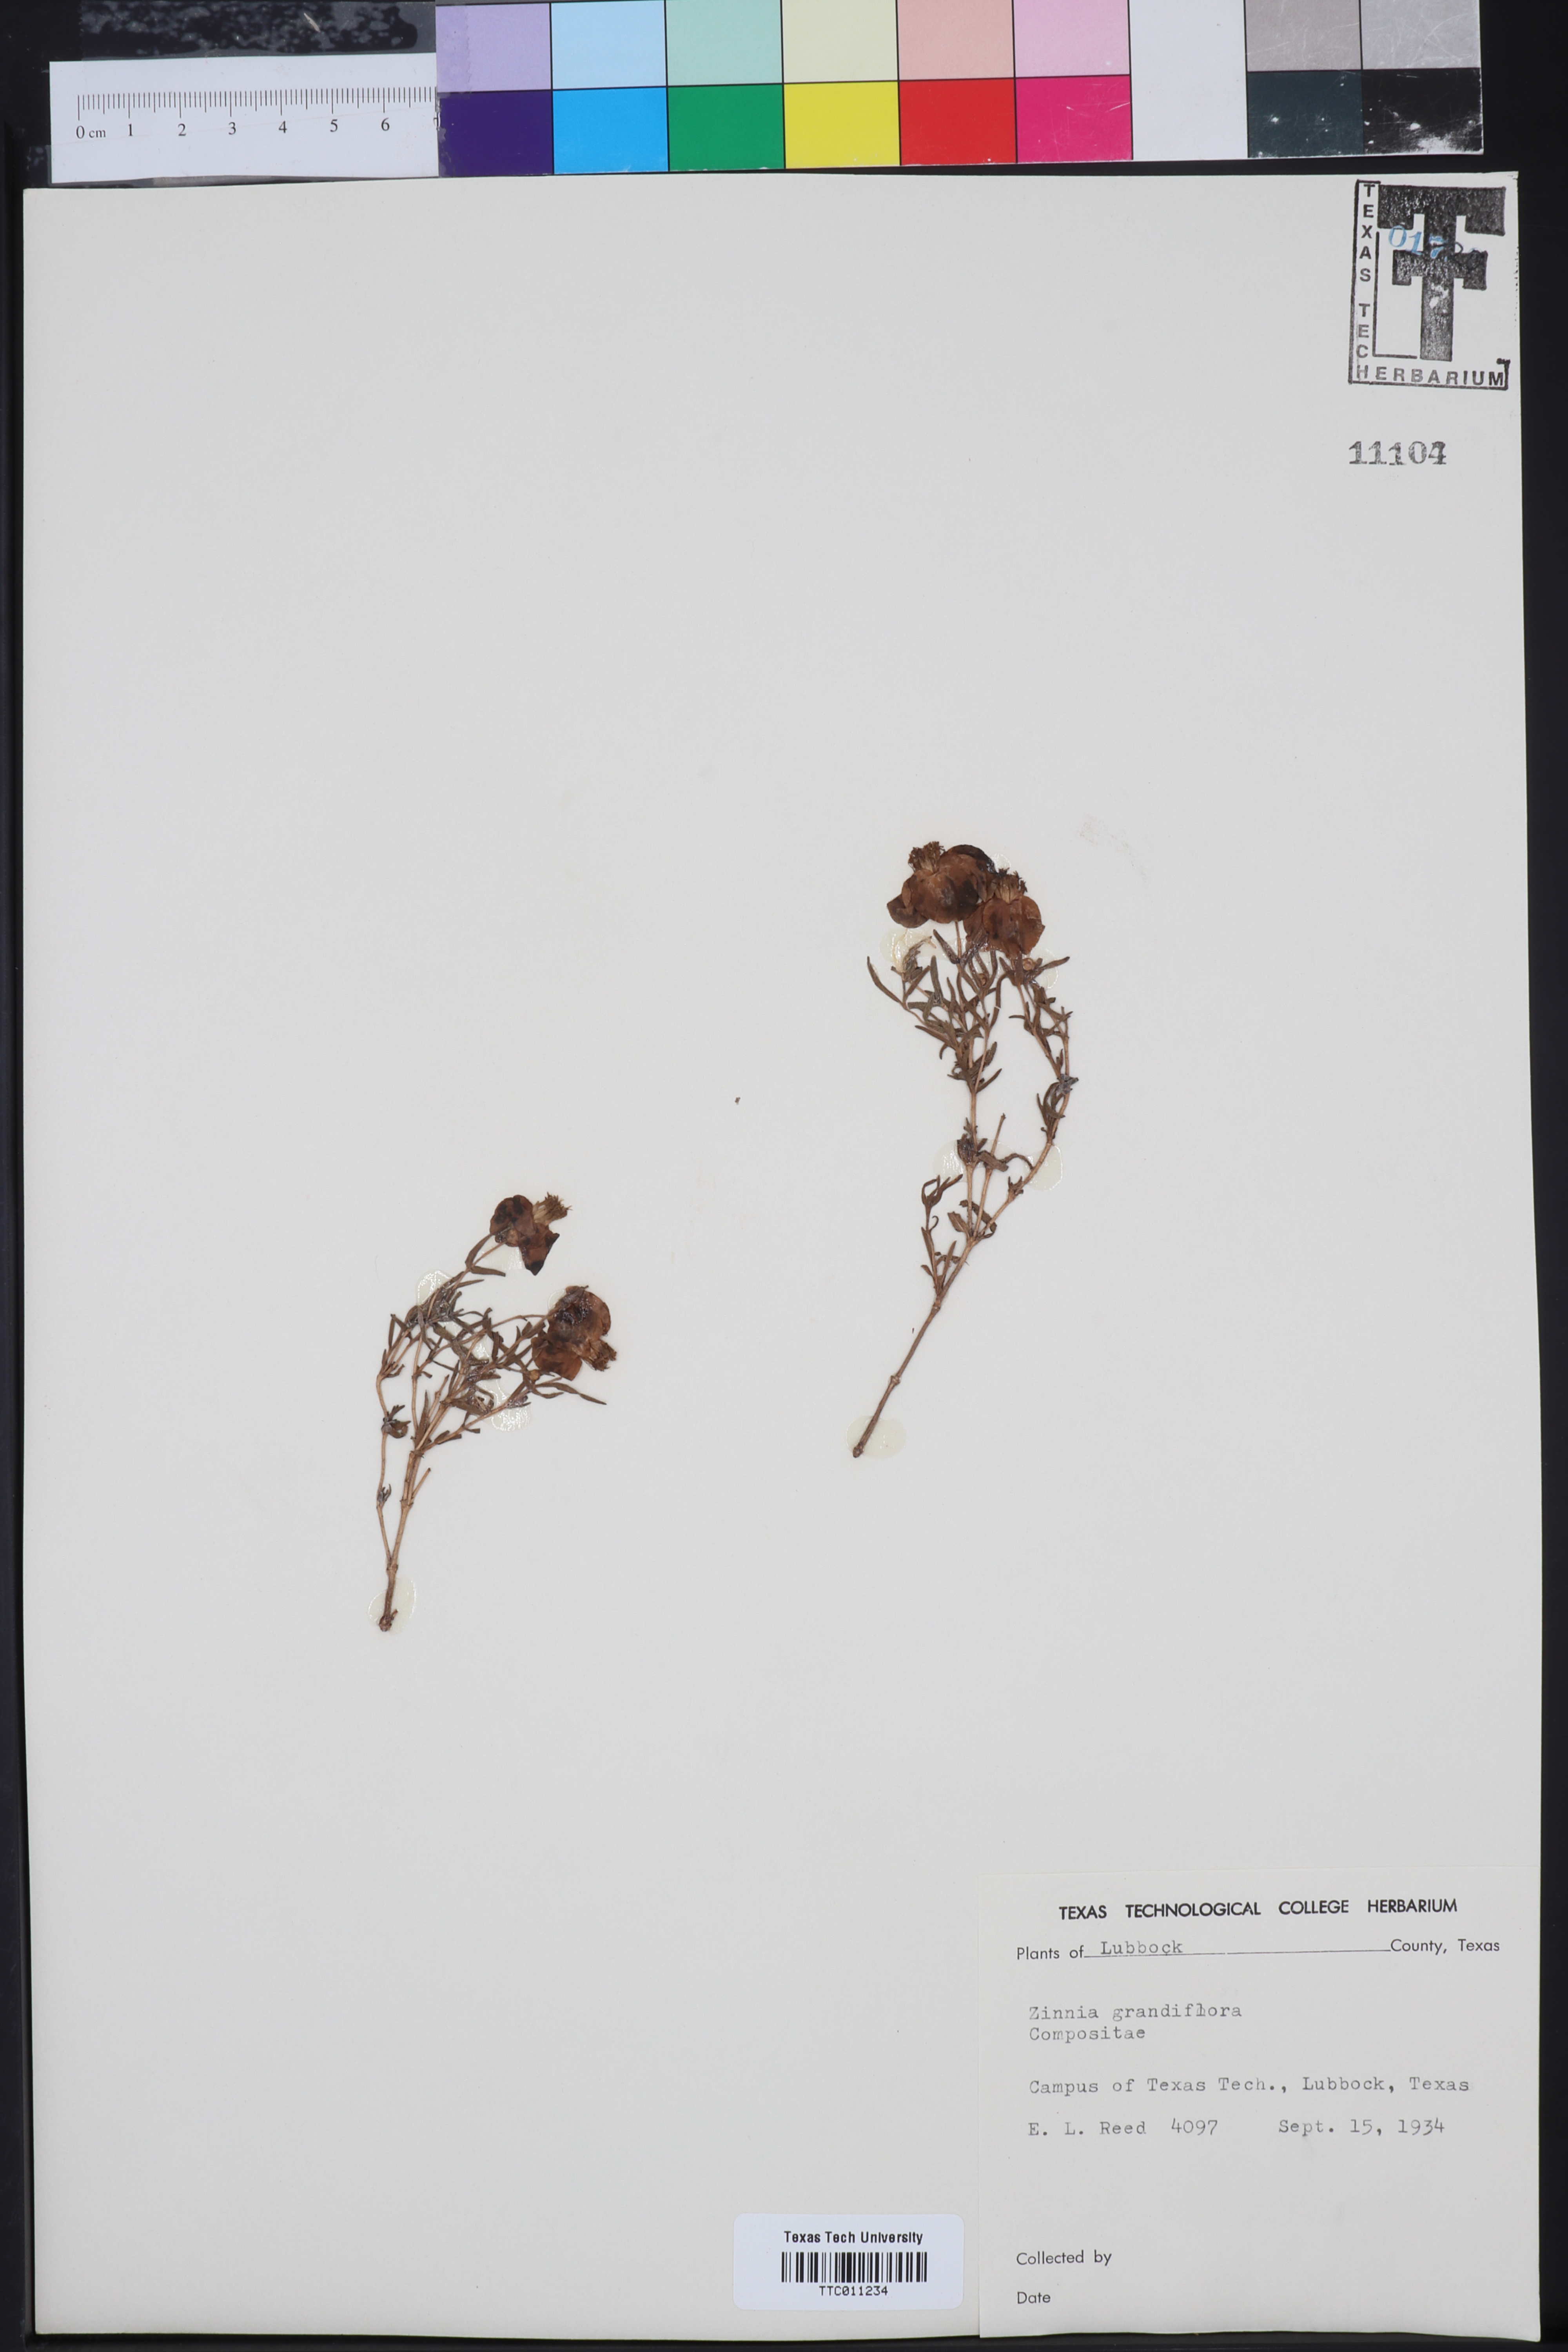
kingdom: Plantae
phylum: Tracheophyta
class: Magnoliopsida
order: Asterales
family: Asteraceae
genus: Zinnia
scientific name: Zinnia grandiflora
